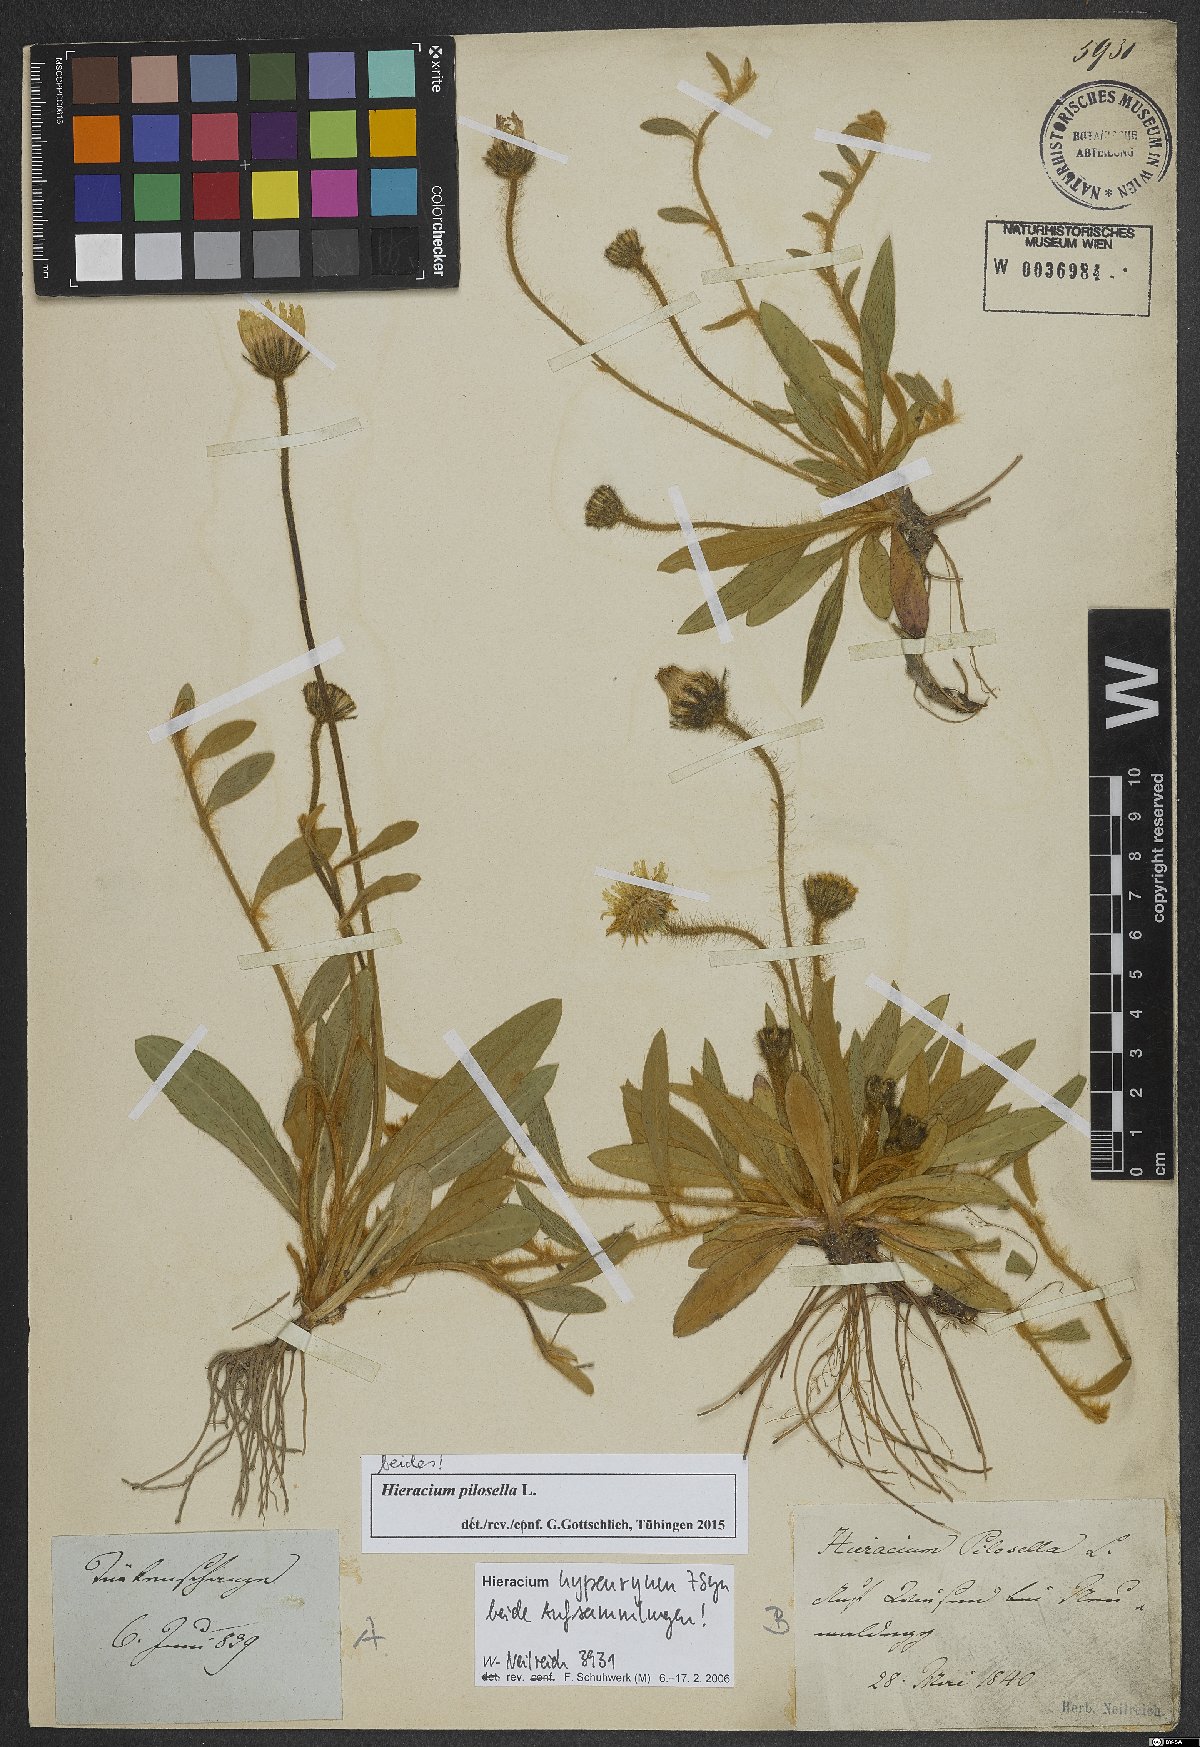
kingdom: Plantae
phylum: Tracheophyta
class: Magnoliopsida
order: Asterales
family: Asteraceae
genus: Pilosella
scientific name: Pilosella officinarum
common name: Mouse-ear hawkweed
